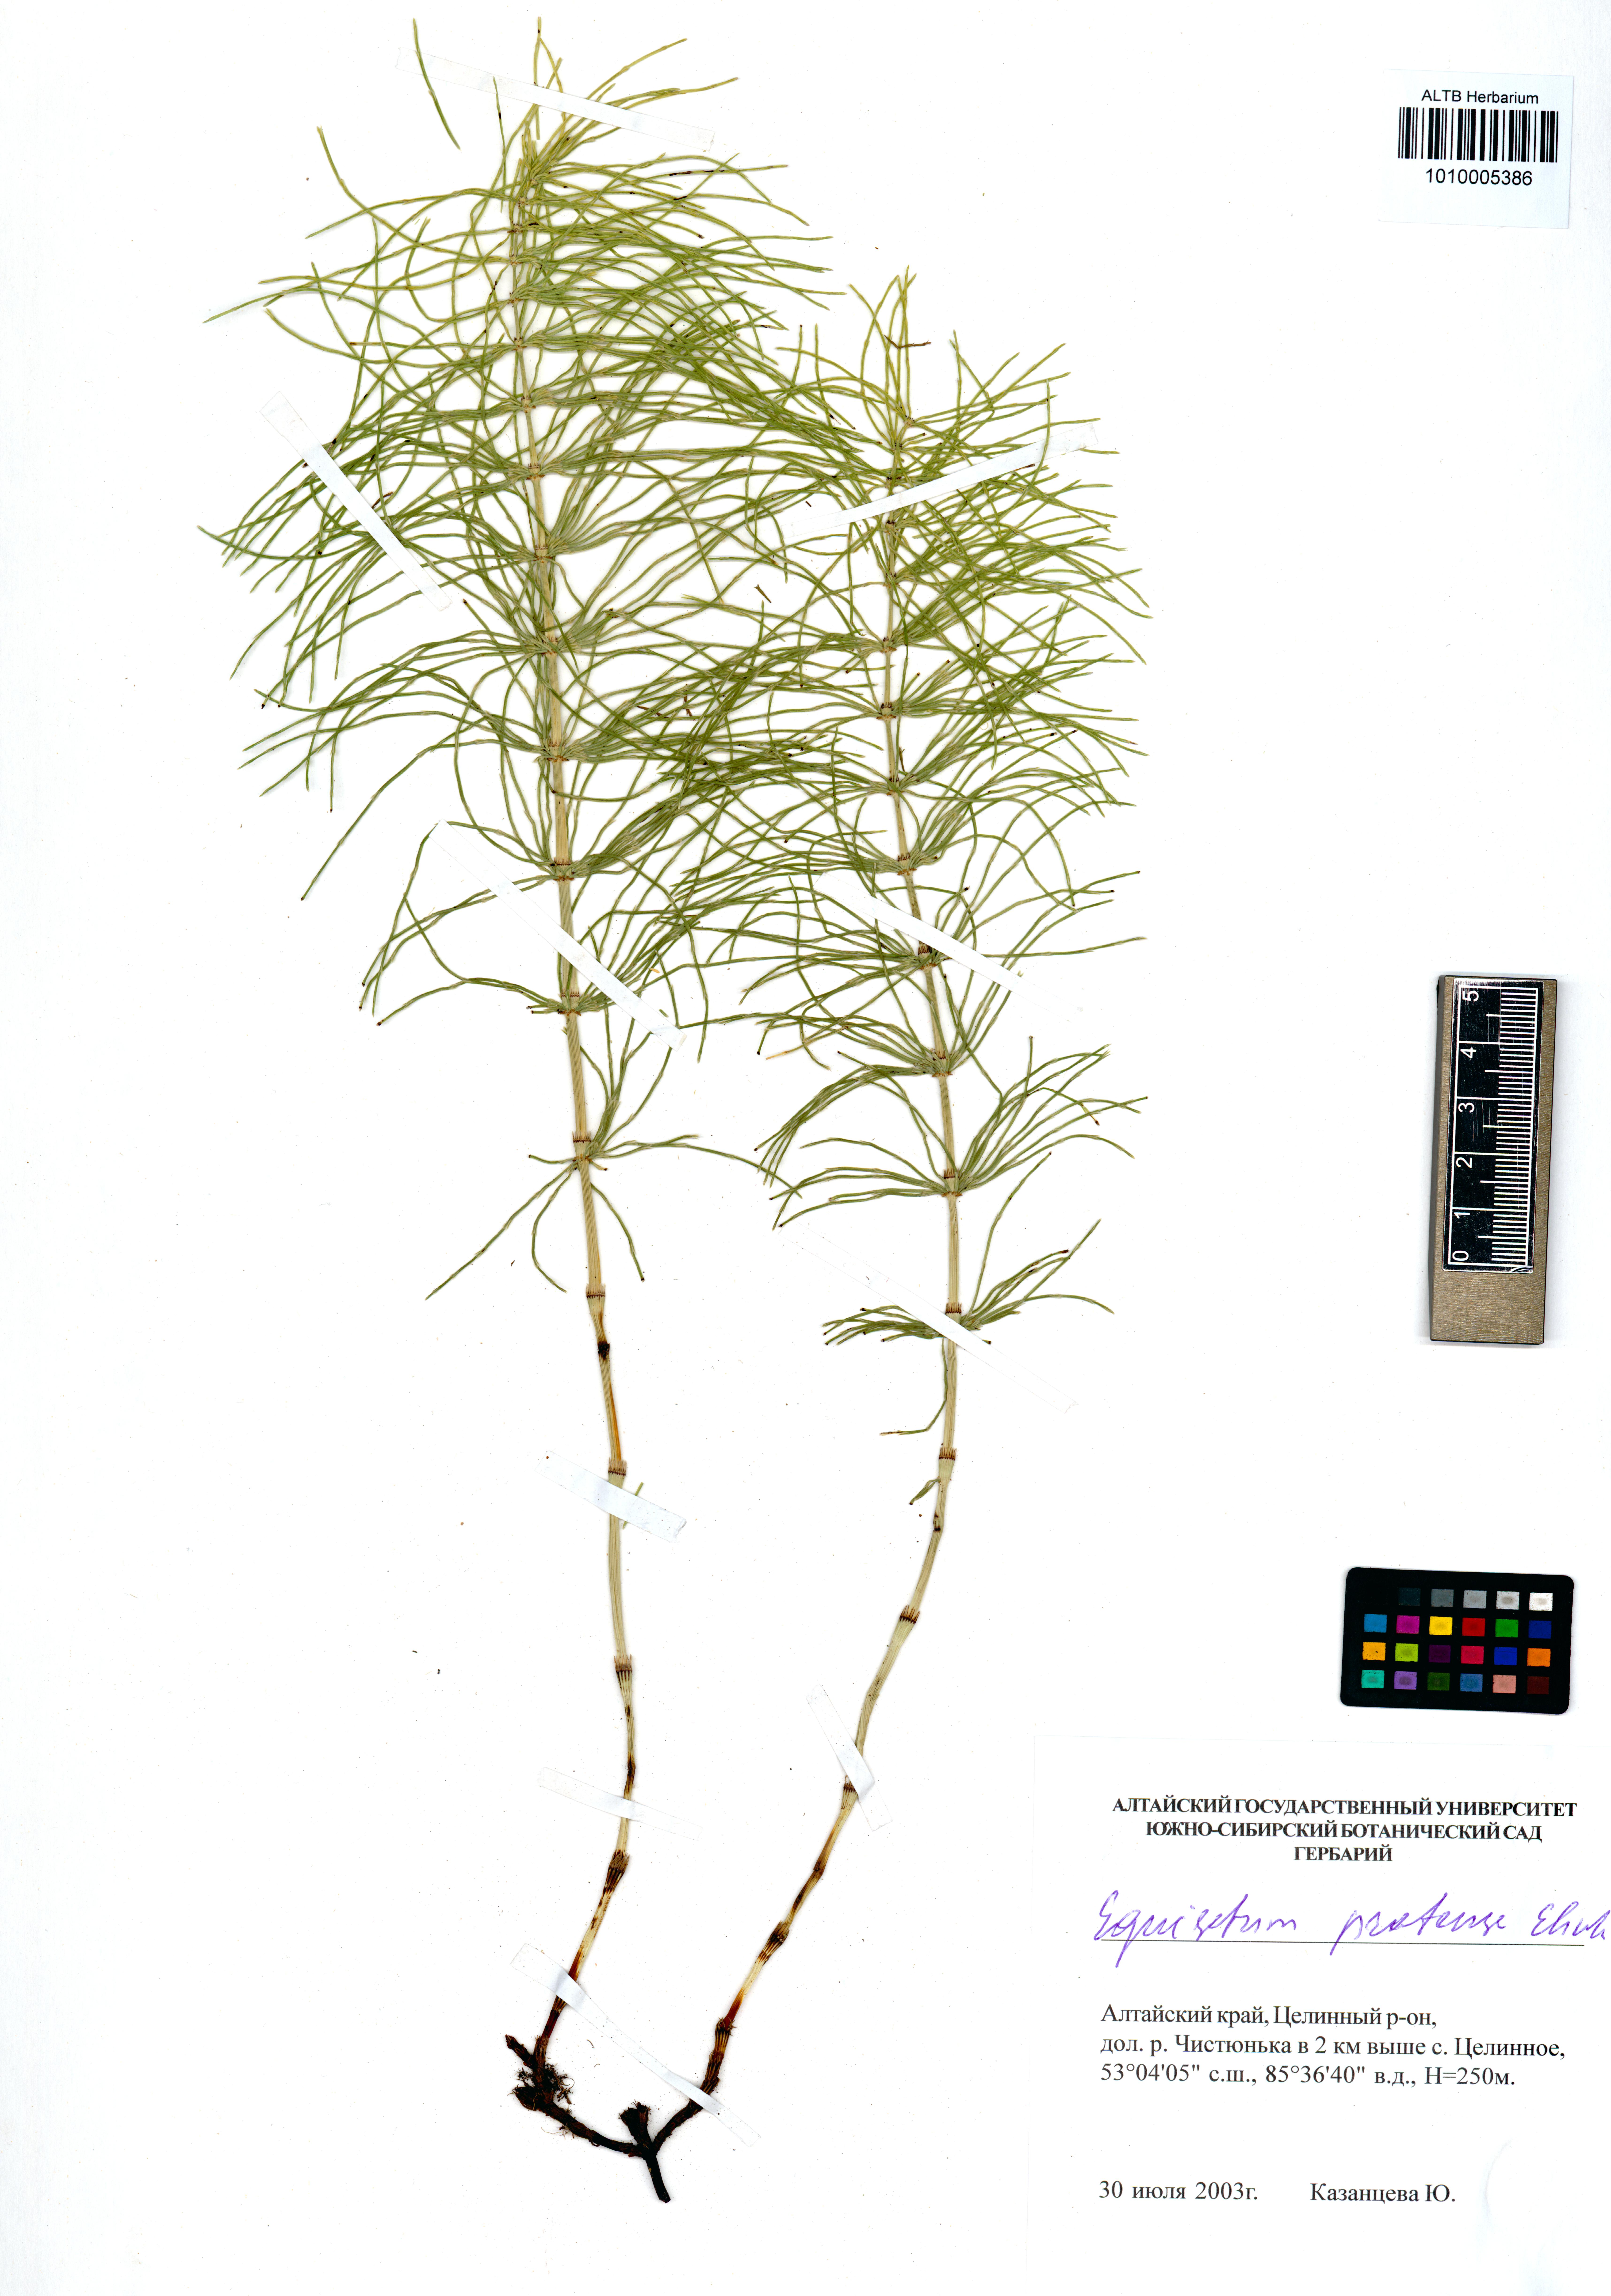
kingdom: Plantae
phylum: Tracheophyta
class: Polypodiopsida
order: Equisetales
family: Equisetaceae
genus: Equisetum
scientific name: Equisetum pratense
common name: Meadow horsetail
